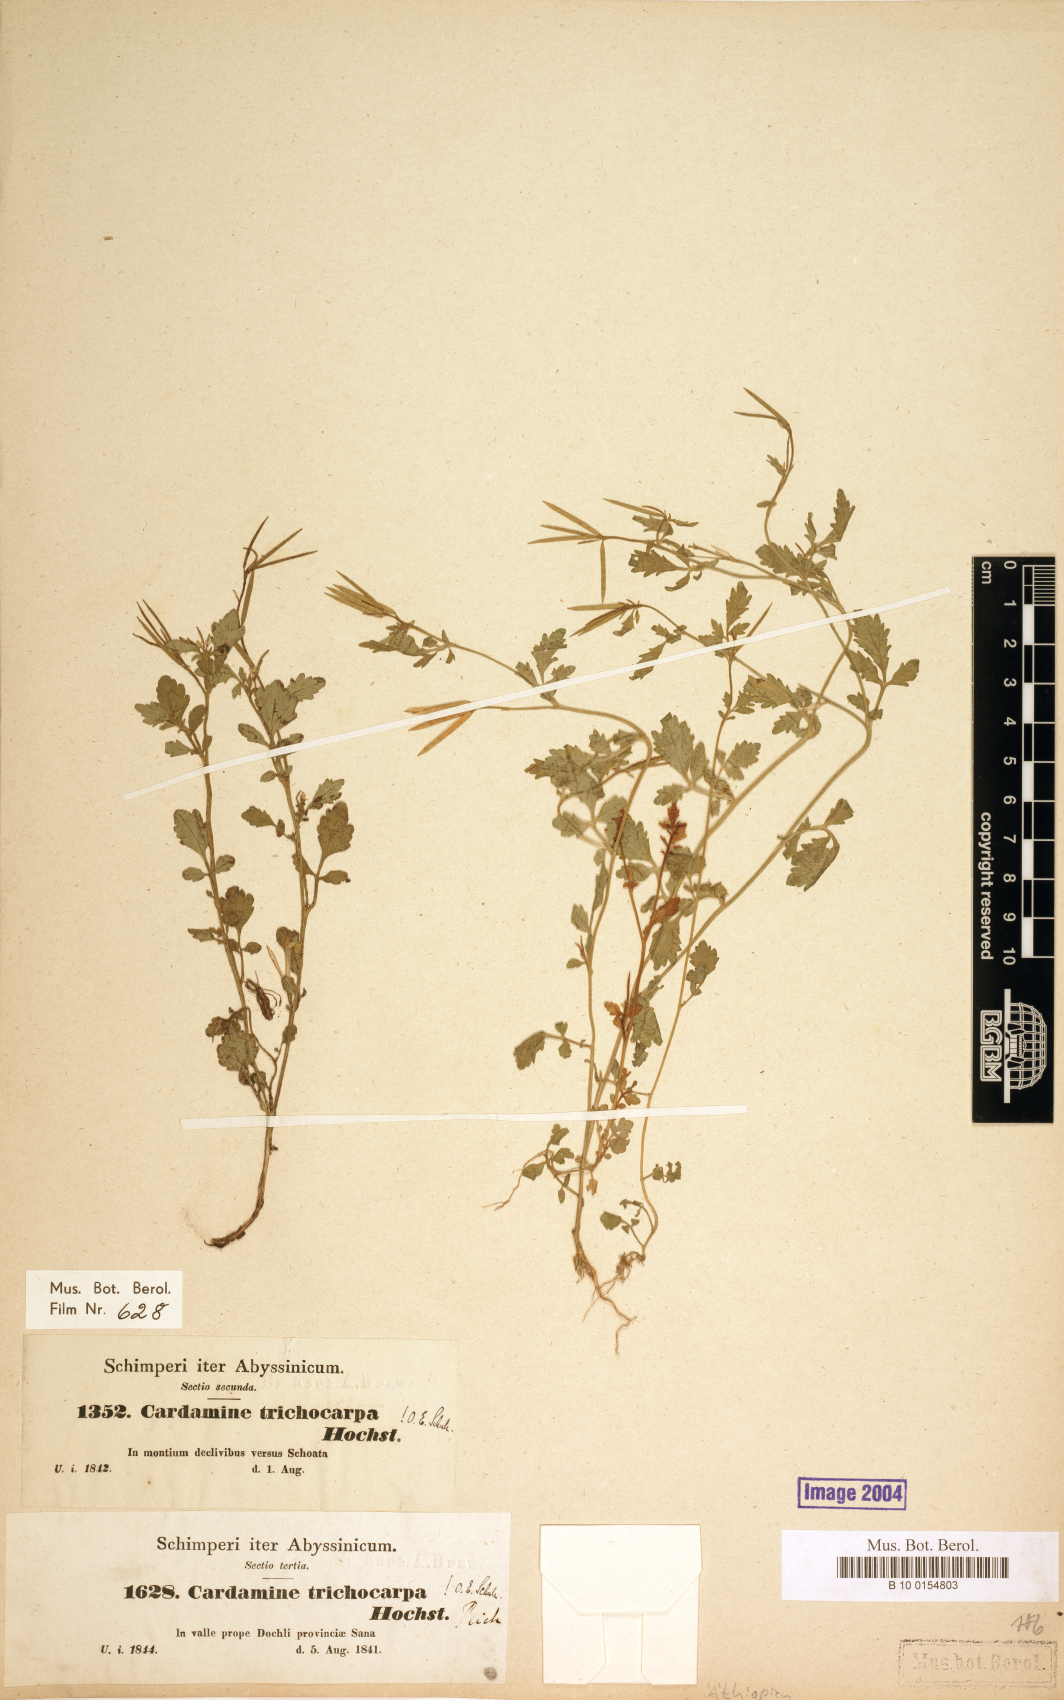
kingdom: Plantae
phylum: Tracheophyta
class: Magnoliopsida
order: Brassicales
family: Brassicaceae
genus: Cardamine
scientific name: Cardamine trichocarpa
